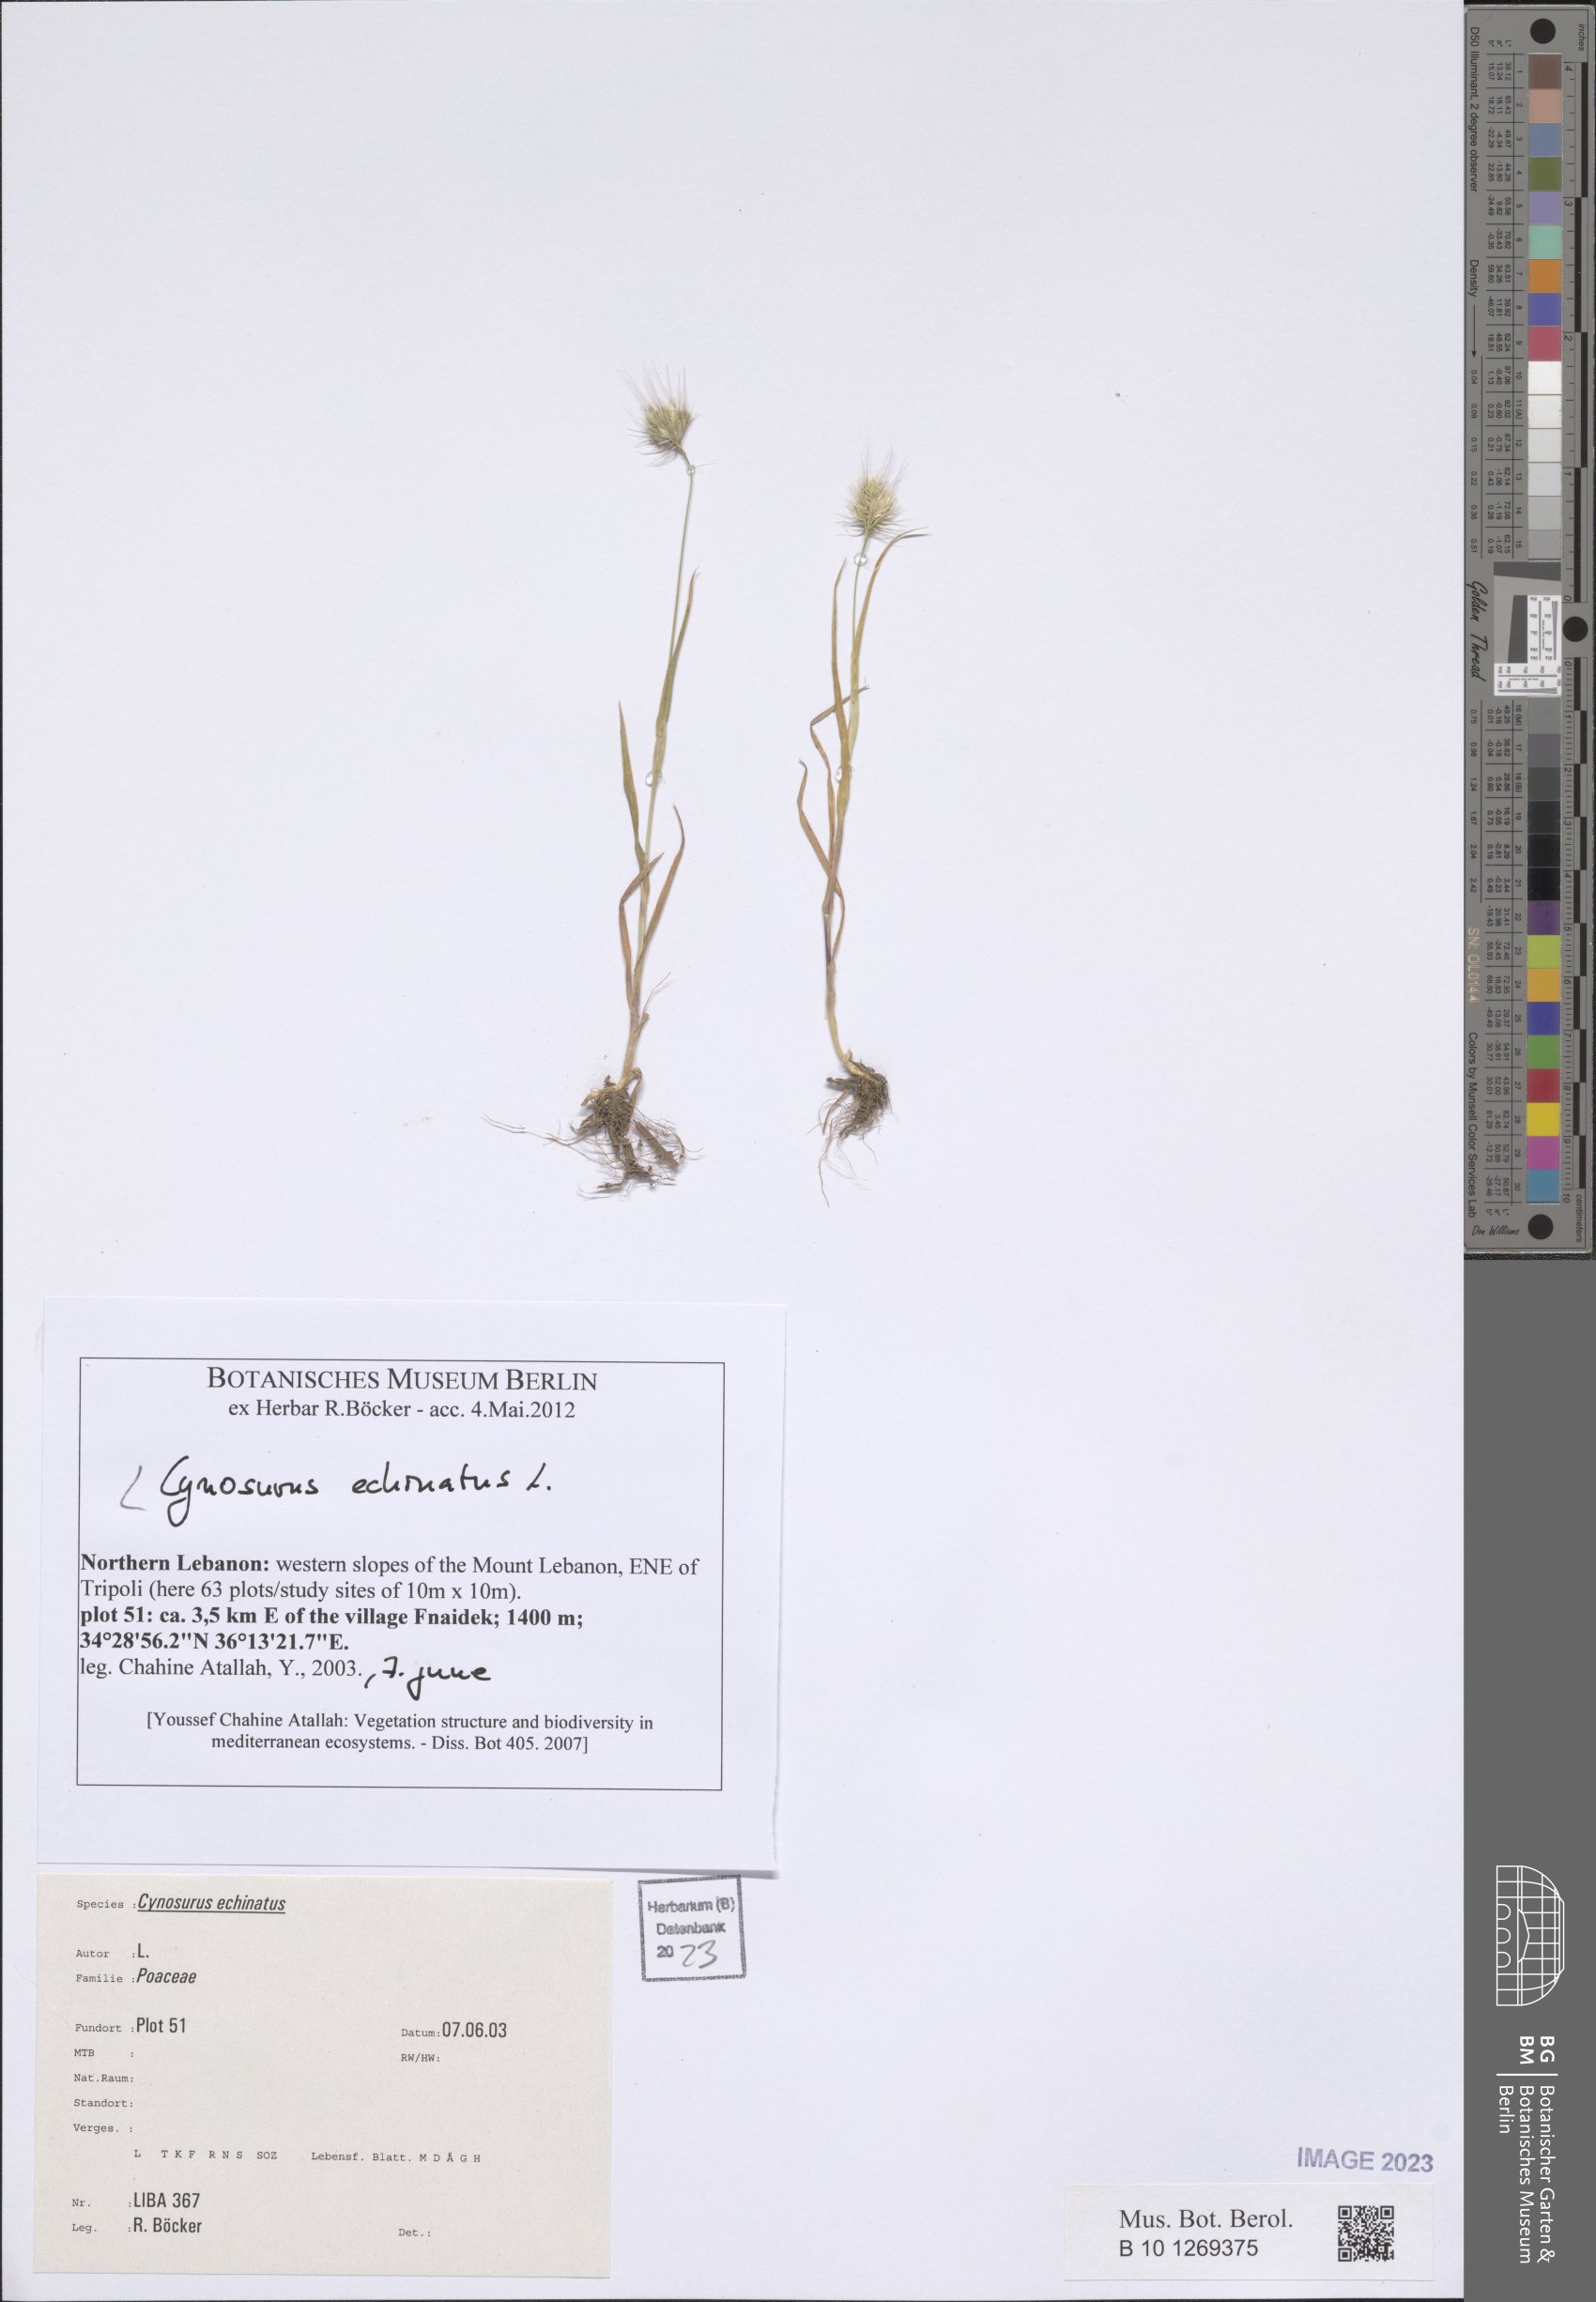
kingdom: Plantae
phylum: Tracheophyta
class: Liliopsida
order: Poales
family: Poaceae
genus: Cynosurus
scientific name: Cynosurus echinatus
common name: Rough dog's-tail
